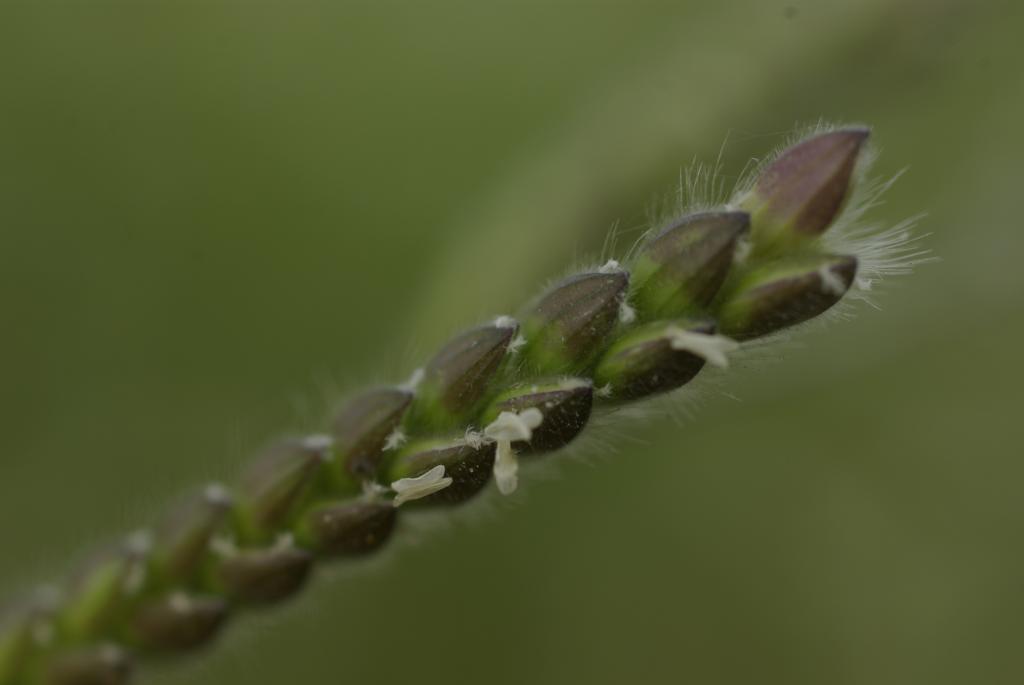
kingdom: Plantae
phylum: Tracheophyta
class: Liliopsida
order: Poales
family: Poaceae
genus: Eriochloa
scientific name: Eriochloa villosa
